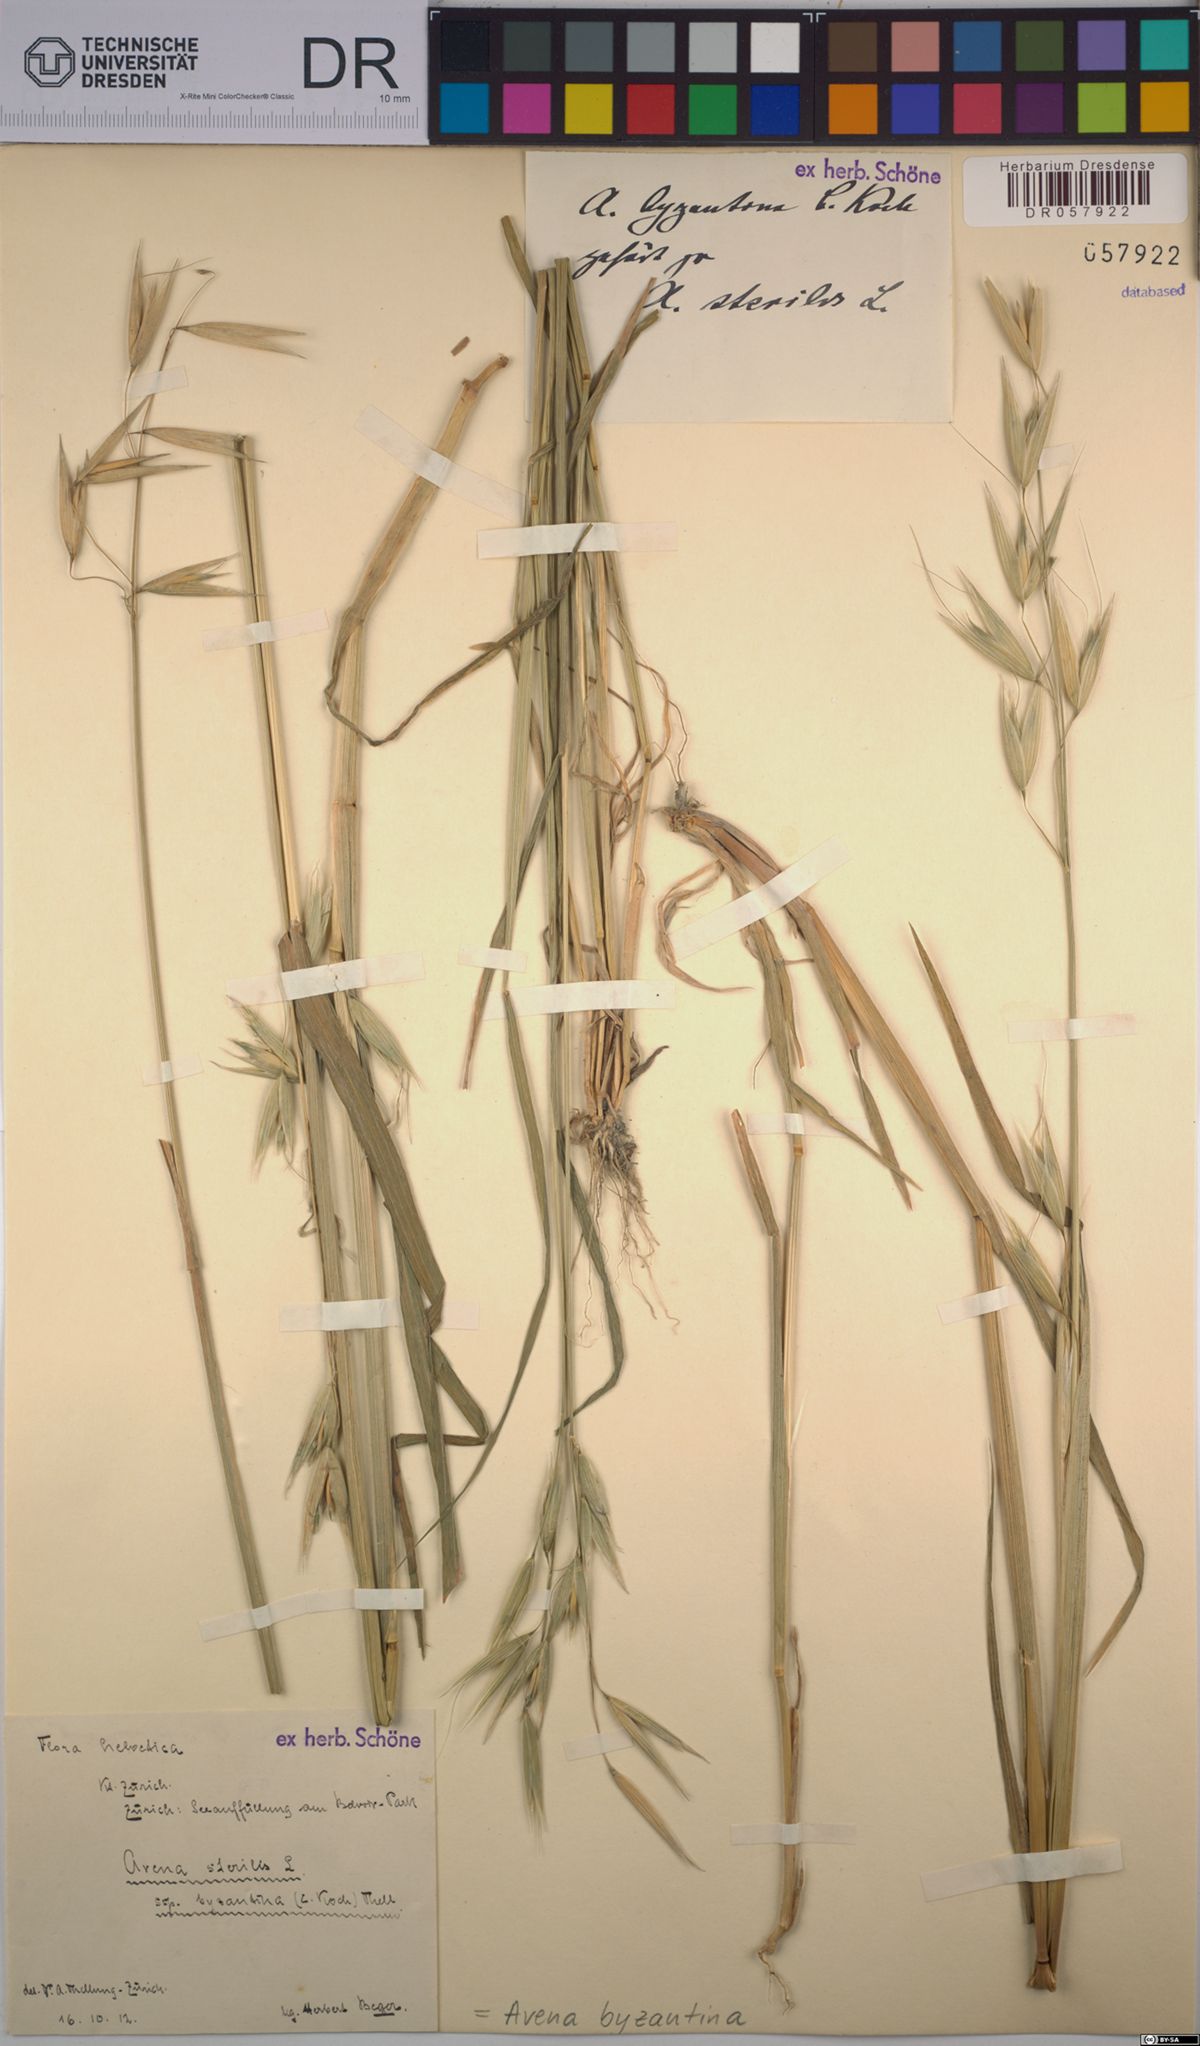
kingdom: Plantae
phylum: Tracheophyta
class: Liliopsida
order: Poales
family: Poaceae
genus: Avena
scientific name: Avena byzantina
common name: Algerian oat
